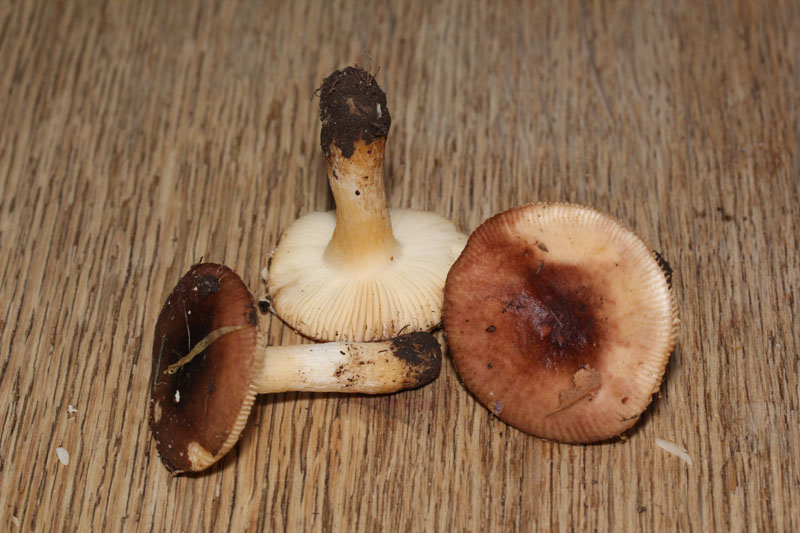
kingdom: Fungi
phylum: Basidiomycota
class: Agaricomycetes
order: Russulales
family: Russulaceae
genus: Russula
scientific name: Russula puellaris
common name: gulstokket skørhat
